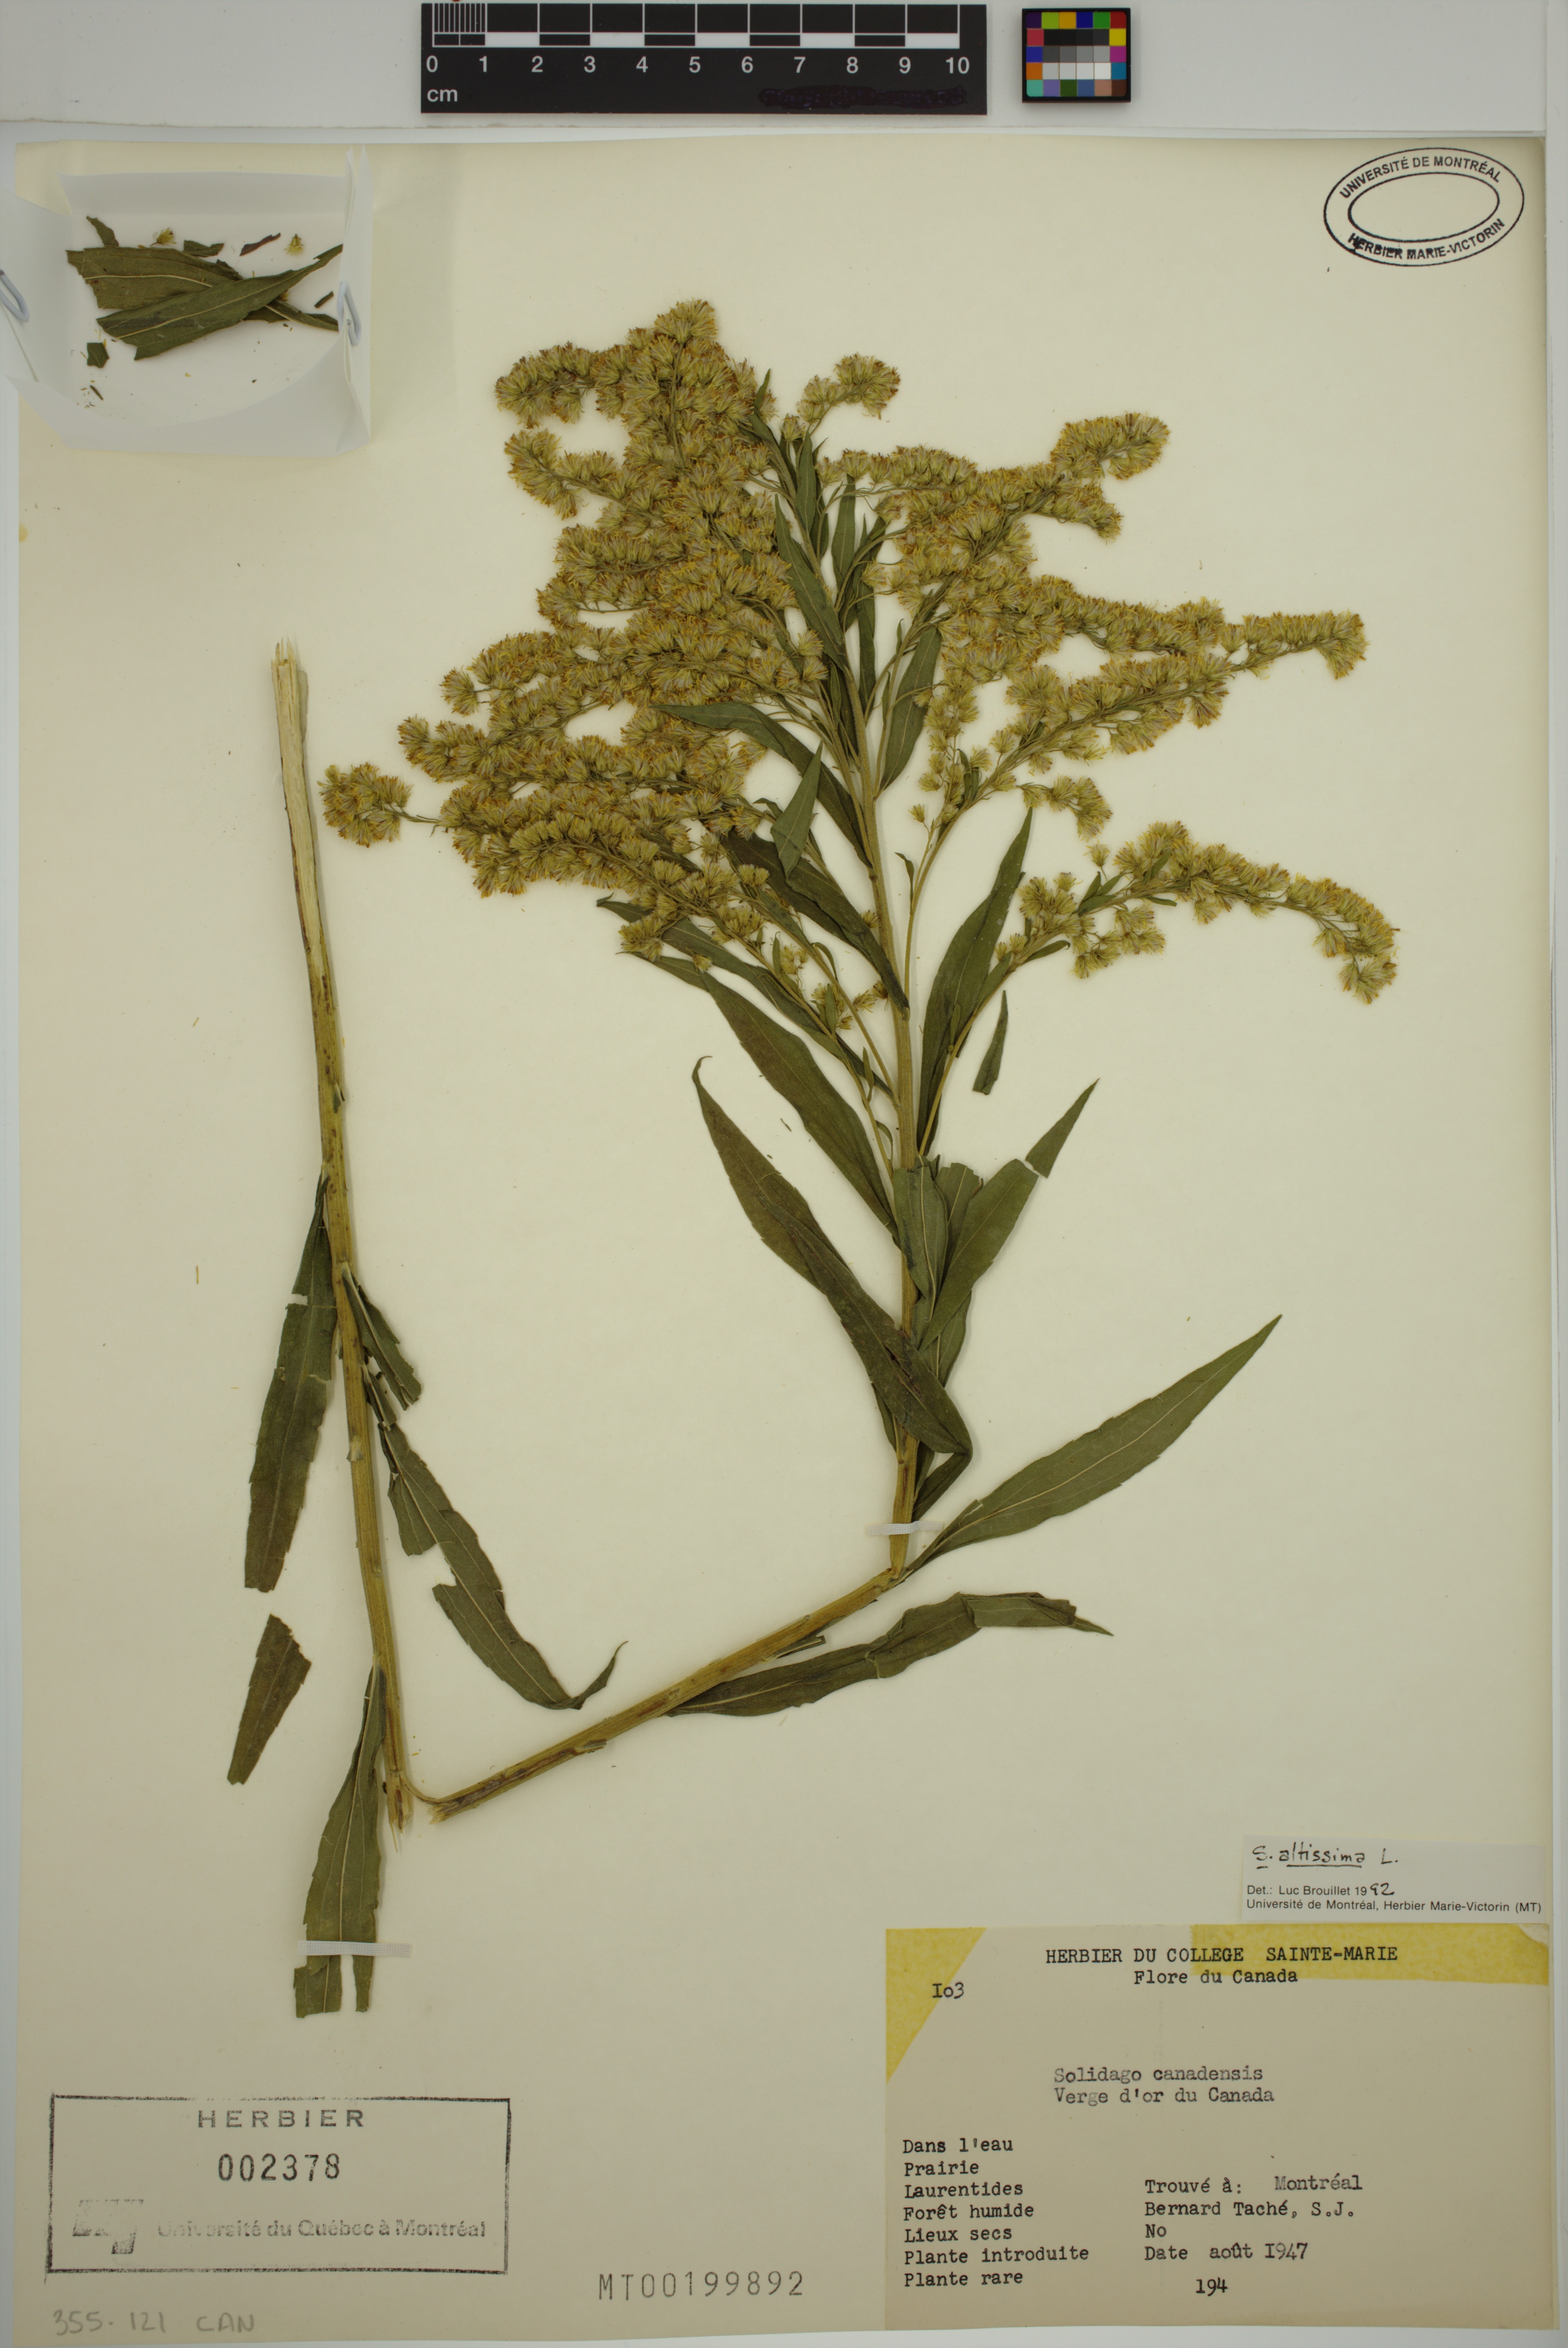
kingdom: Plantae
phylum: Tracheophyta
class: Magnoliopsida
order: Asterales
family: Asteraceae
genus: Solidago
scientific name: Solidago altissima
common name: Late goldenrod
